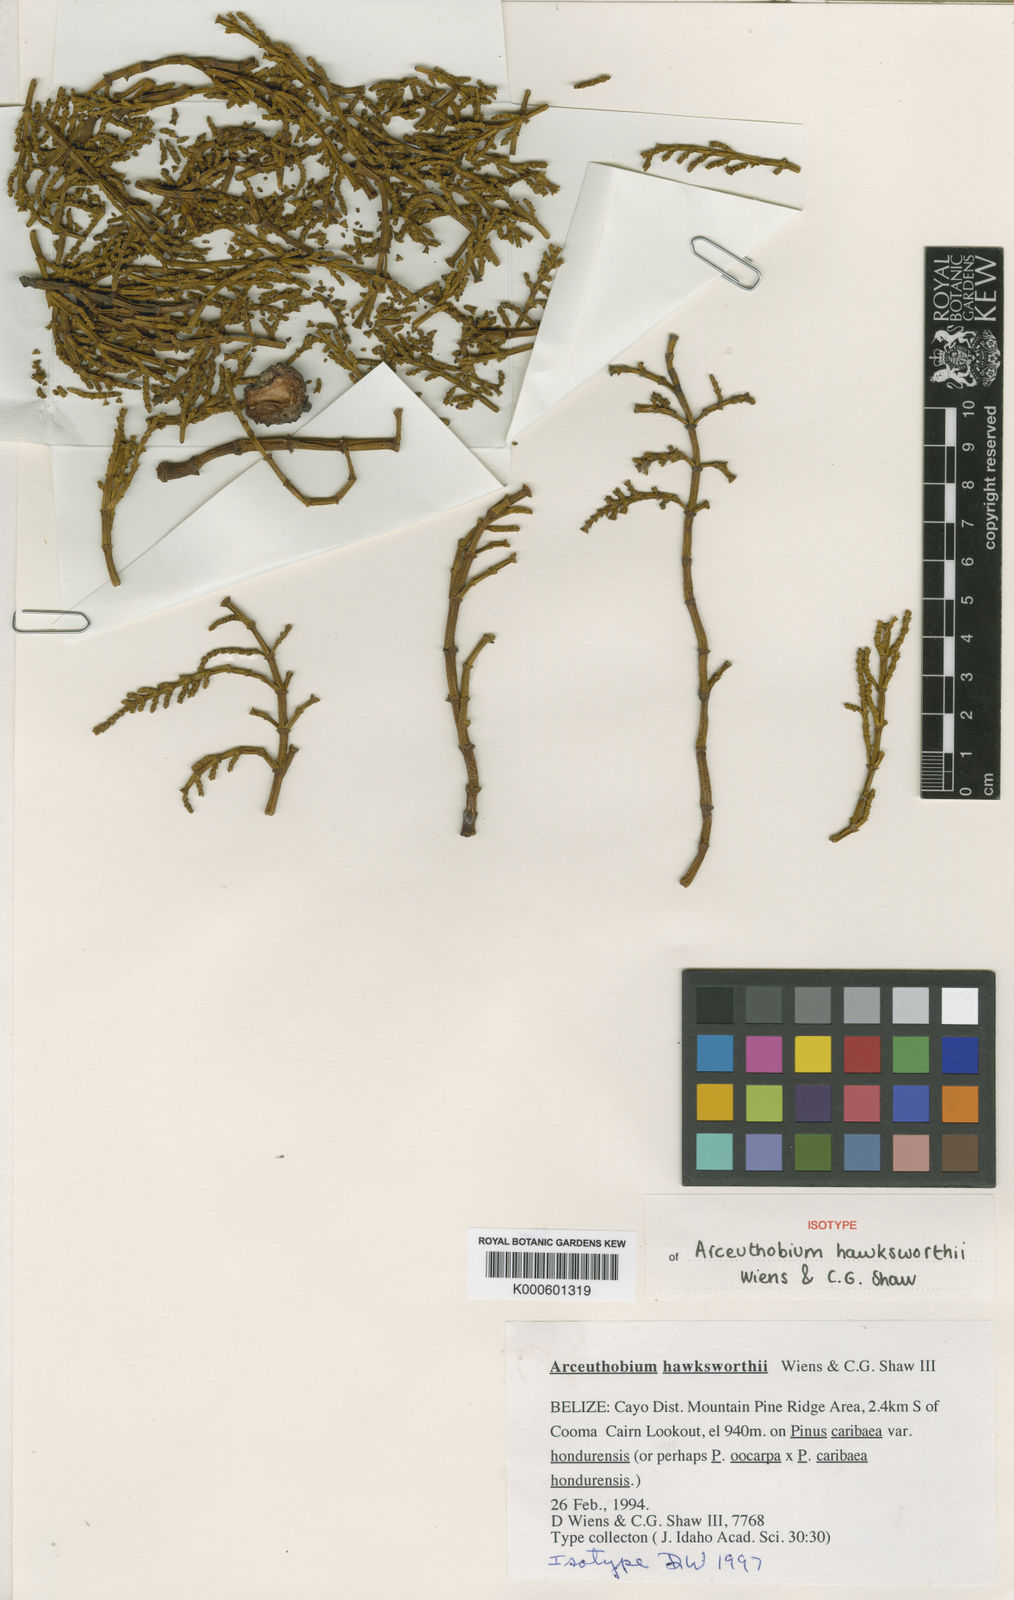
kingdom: Plantae
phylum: Tracheophyta
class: Magnoliopsida
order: Santalales
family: Viscaceae
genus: Arceuthobium
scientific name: Arceuthobium hondurense
